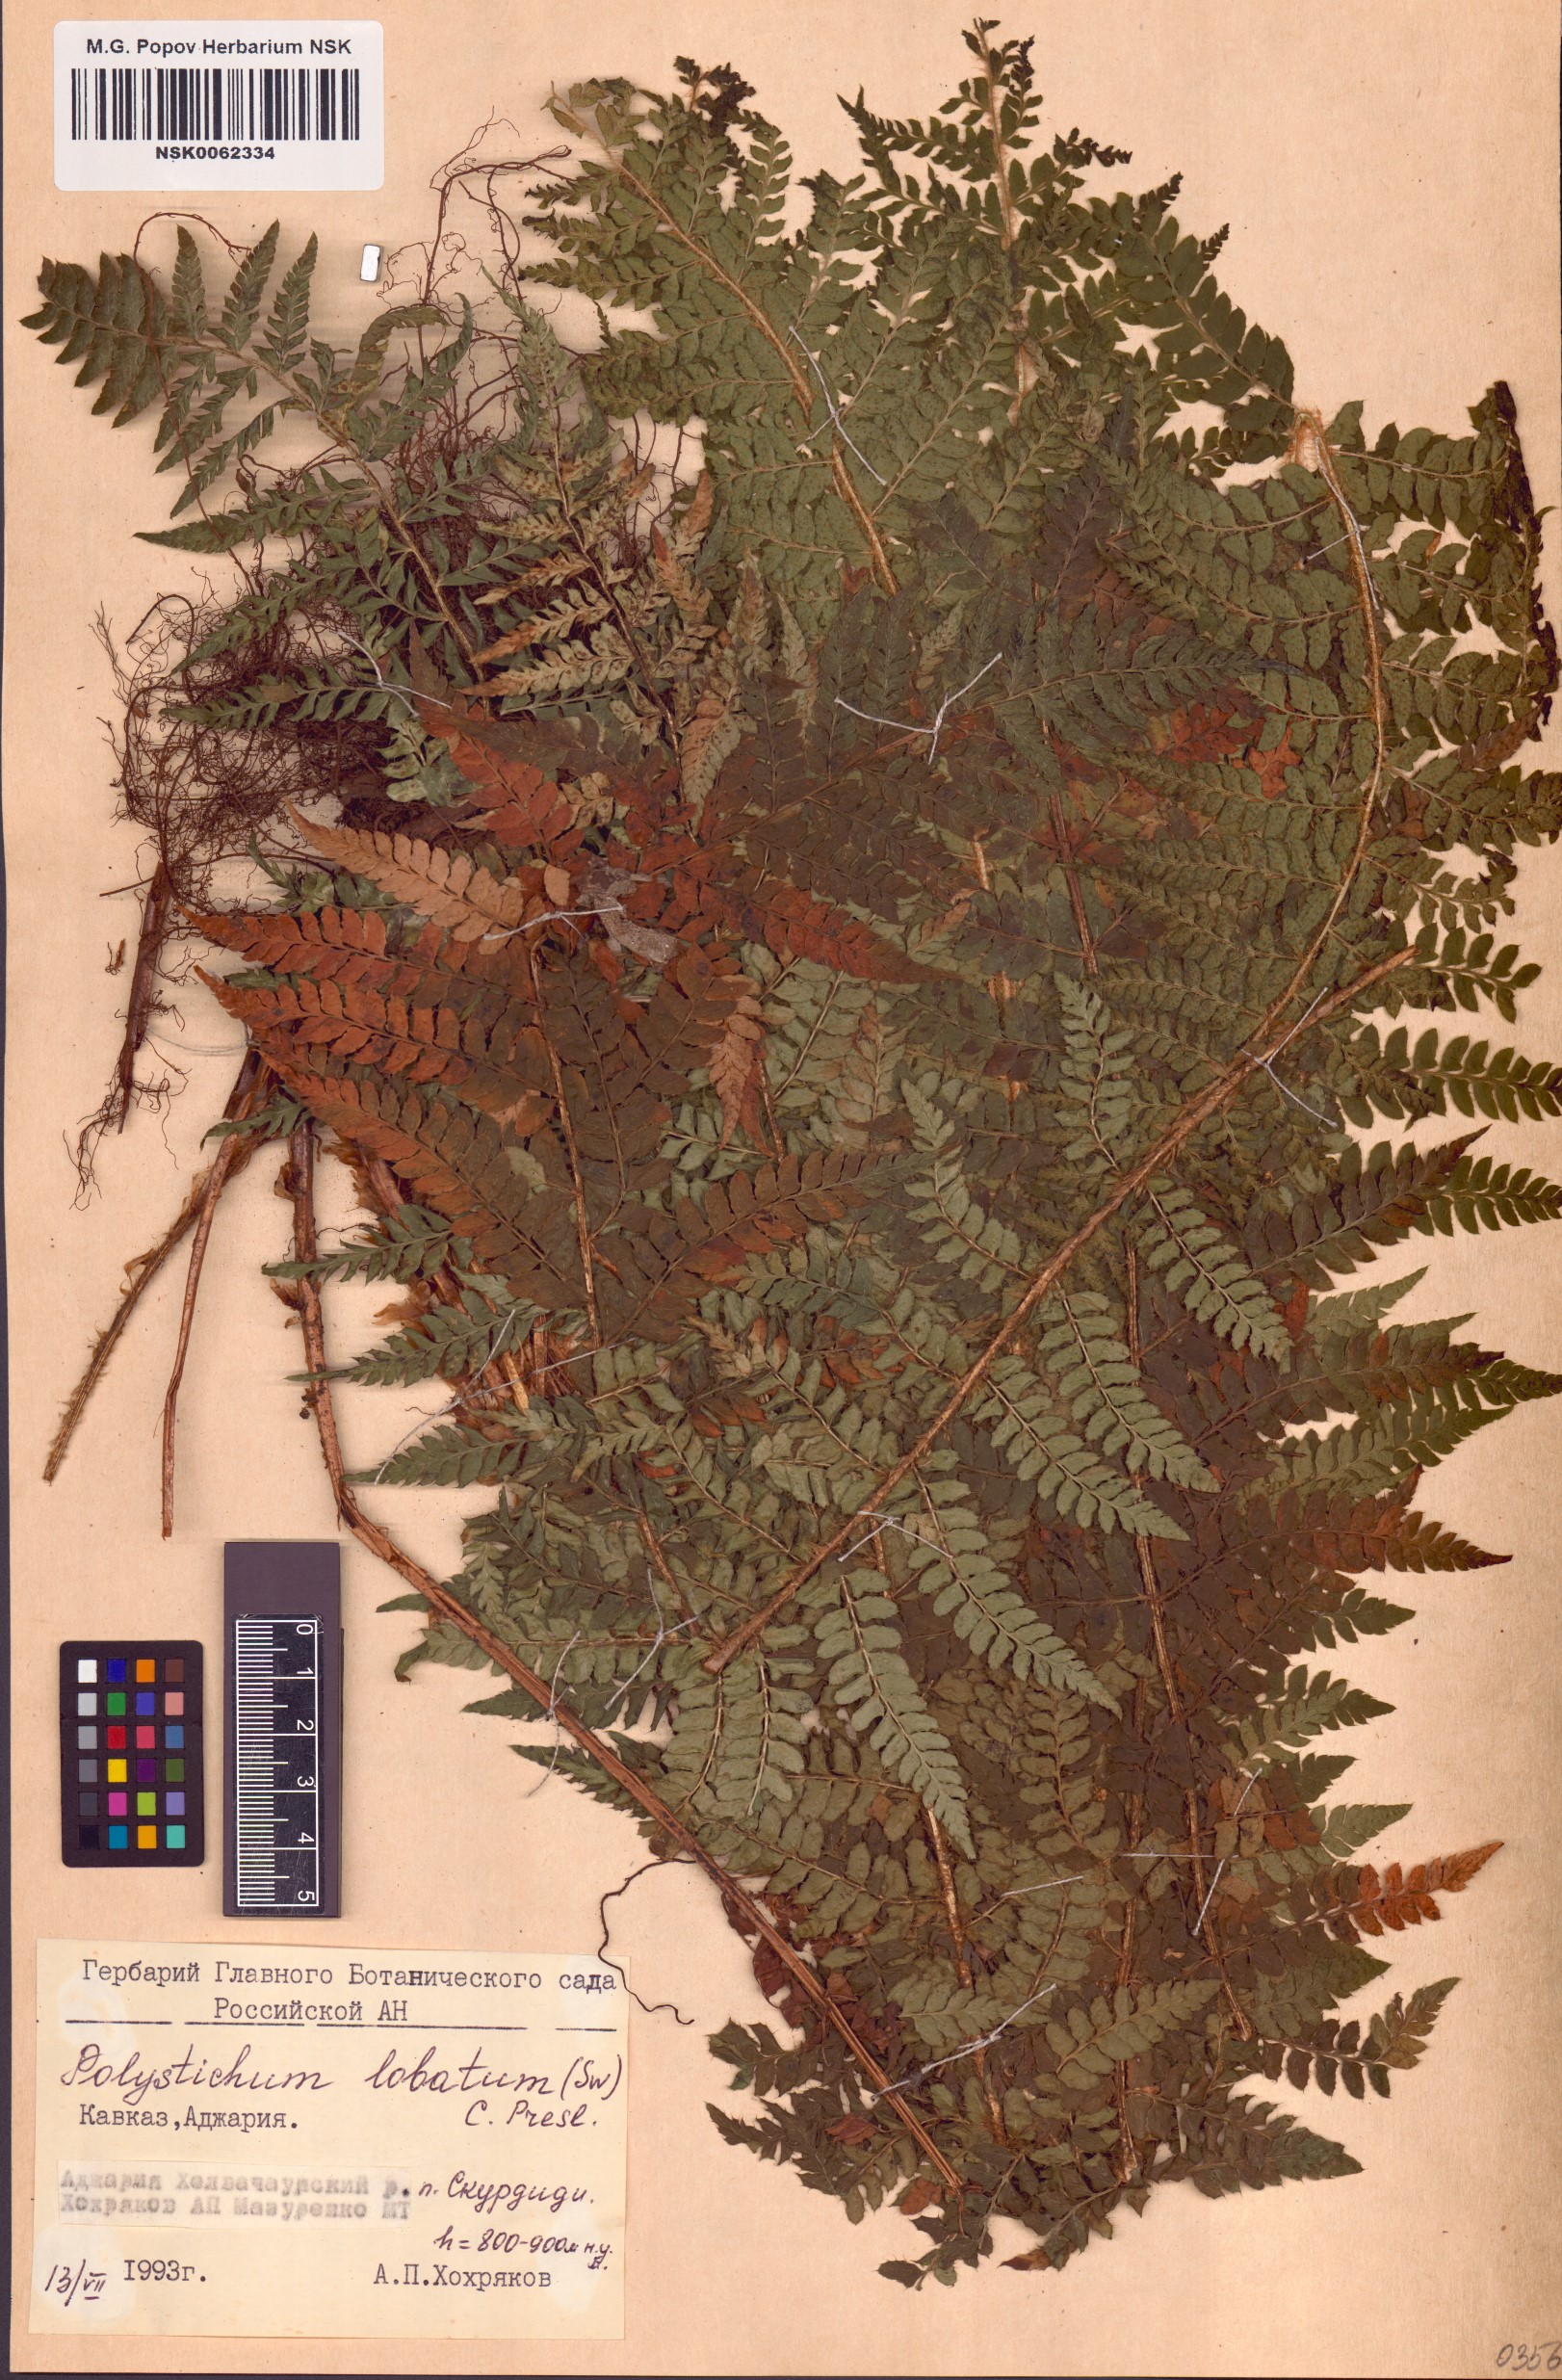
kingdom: Plantae
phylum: Tracheophyta
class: Polypodiopsida
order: Polypodiales
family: Dryopteridaceae
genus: Polystichum
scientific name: Polystichum aculeatum
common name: Hard shield-fern
